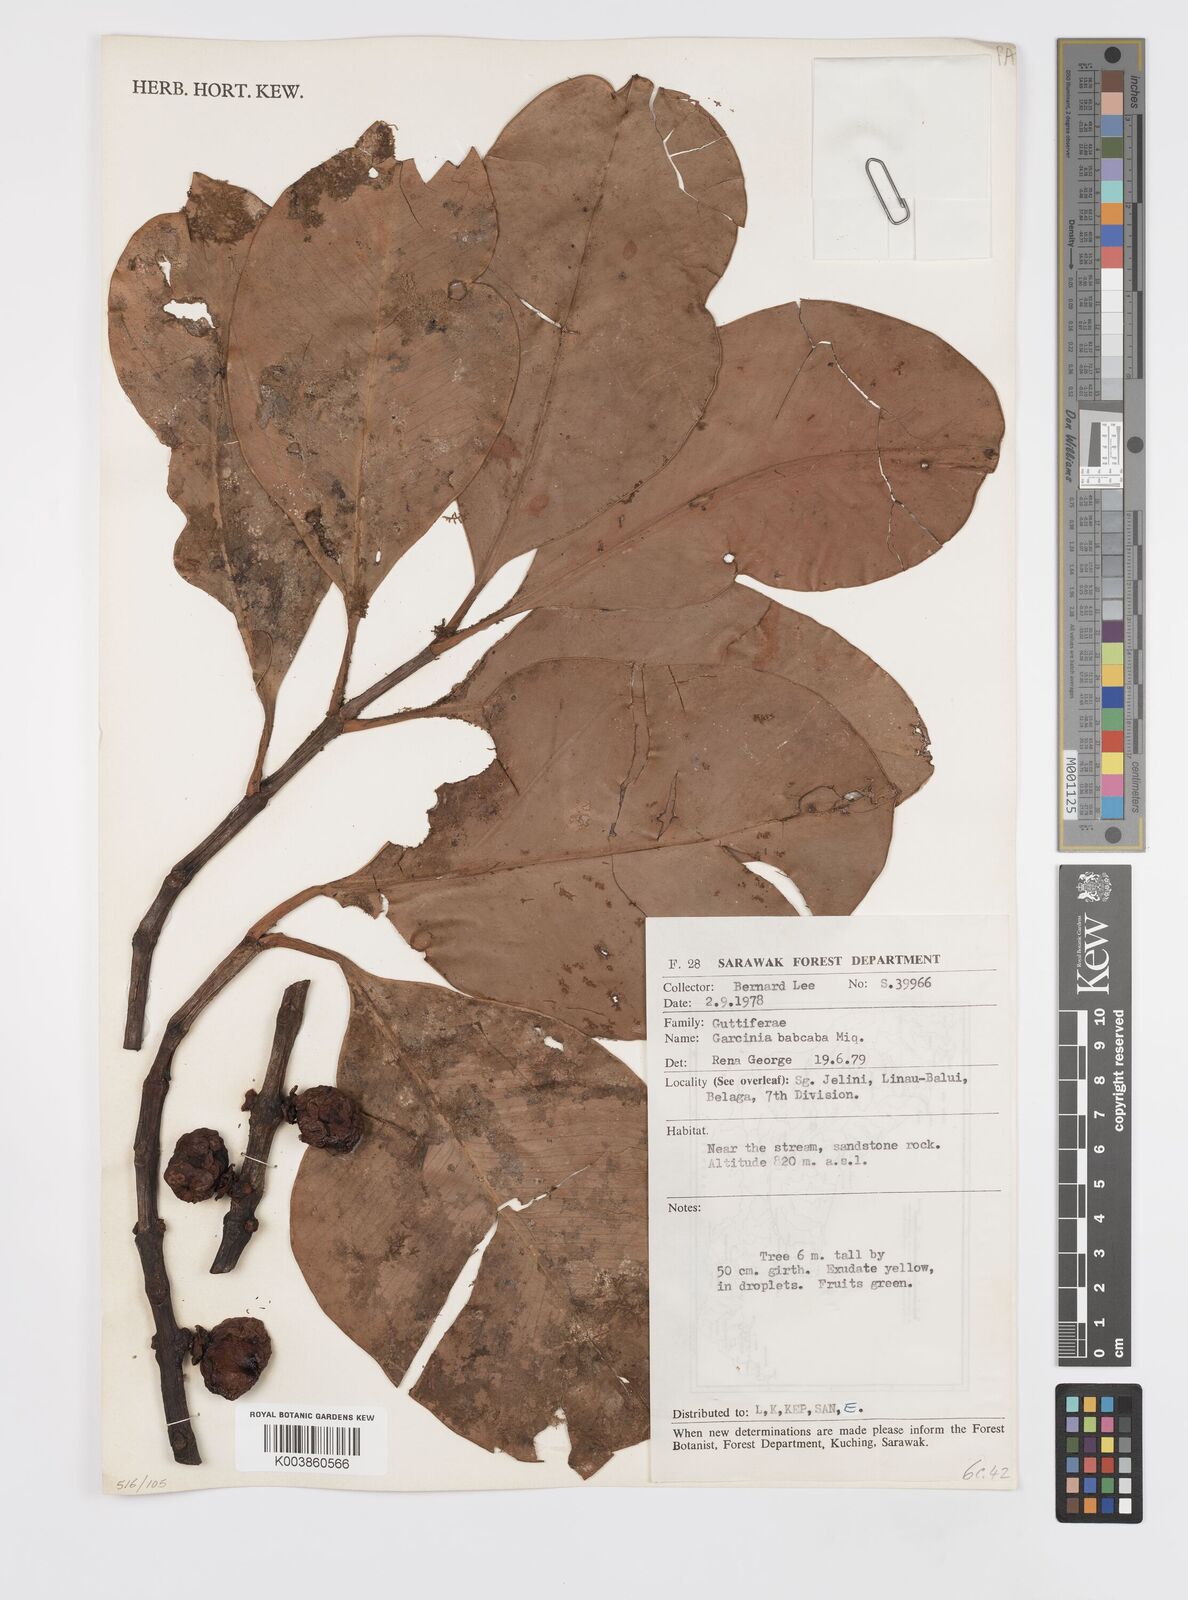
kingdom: Plantae
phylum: Tracheophyta
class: Magnoliopsida
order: Malpighiales
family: Clusiaceae
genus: Garcinia
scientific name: Garcinia bancana
